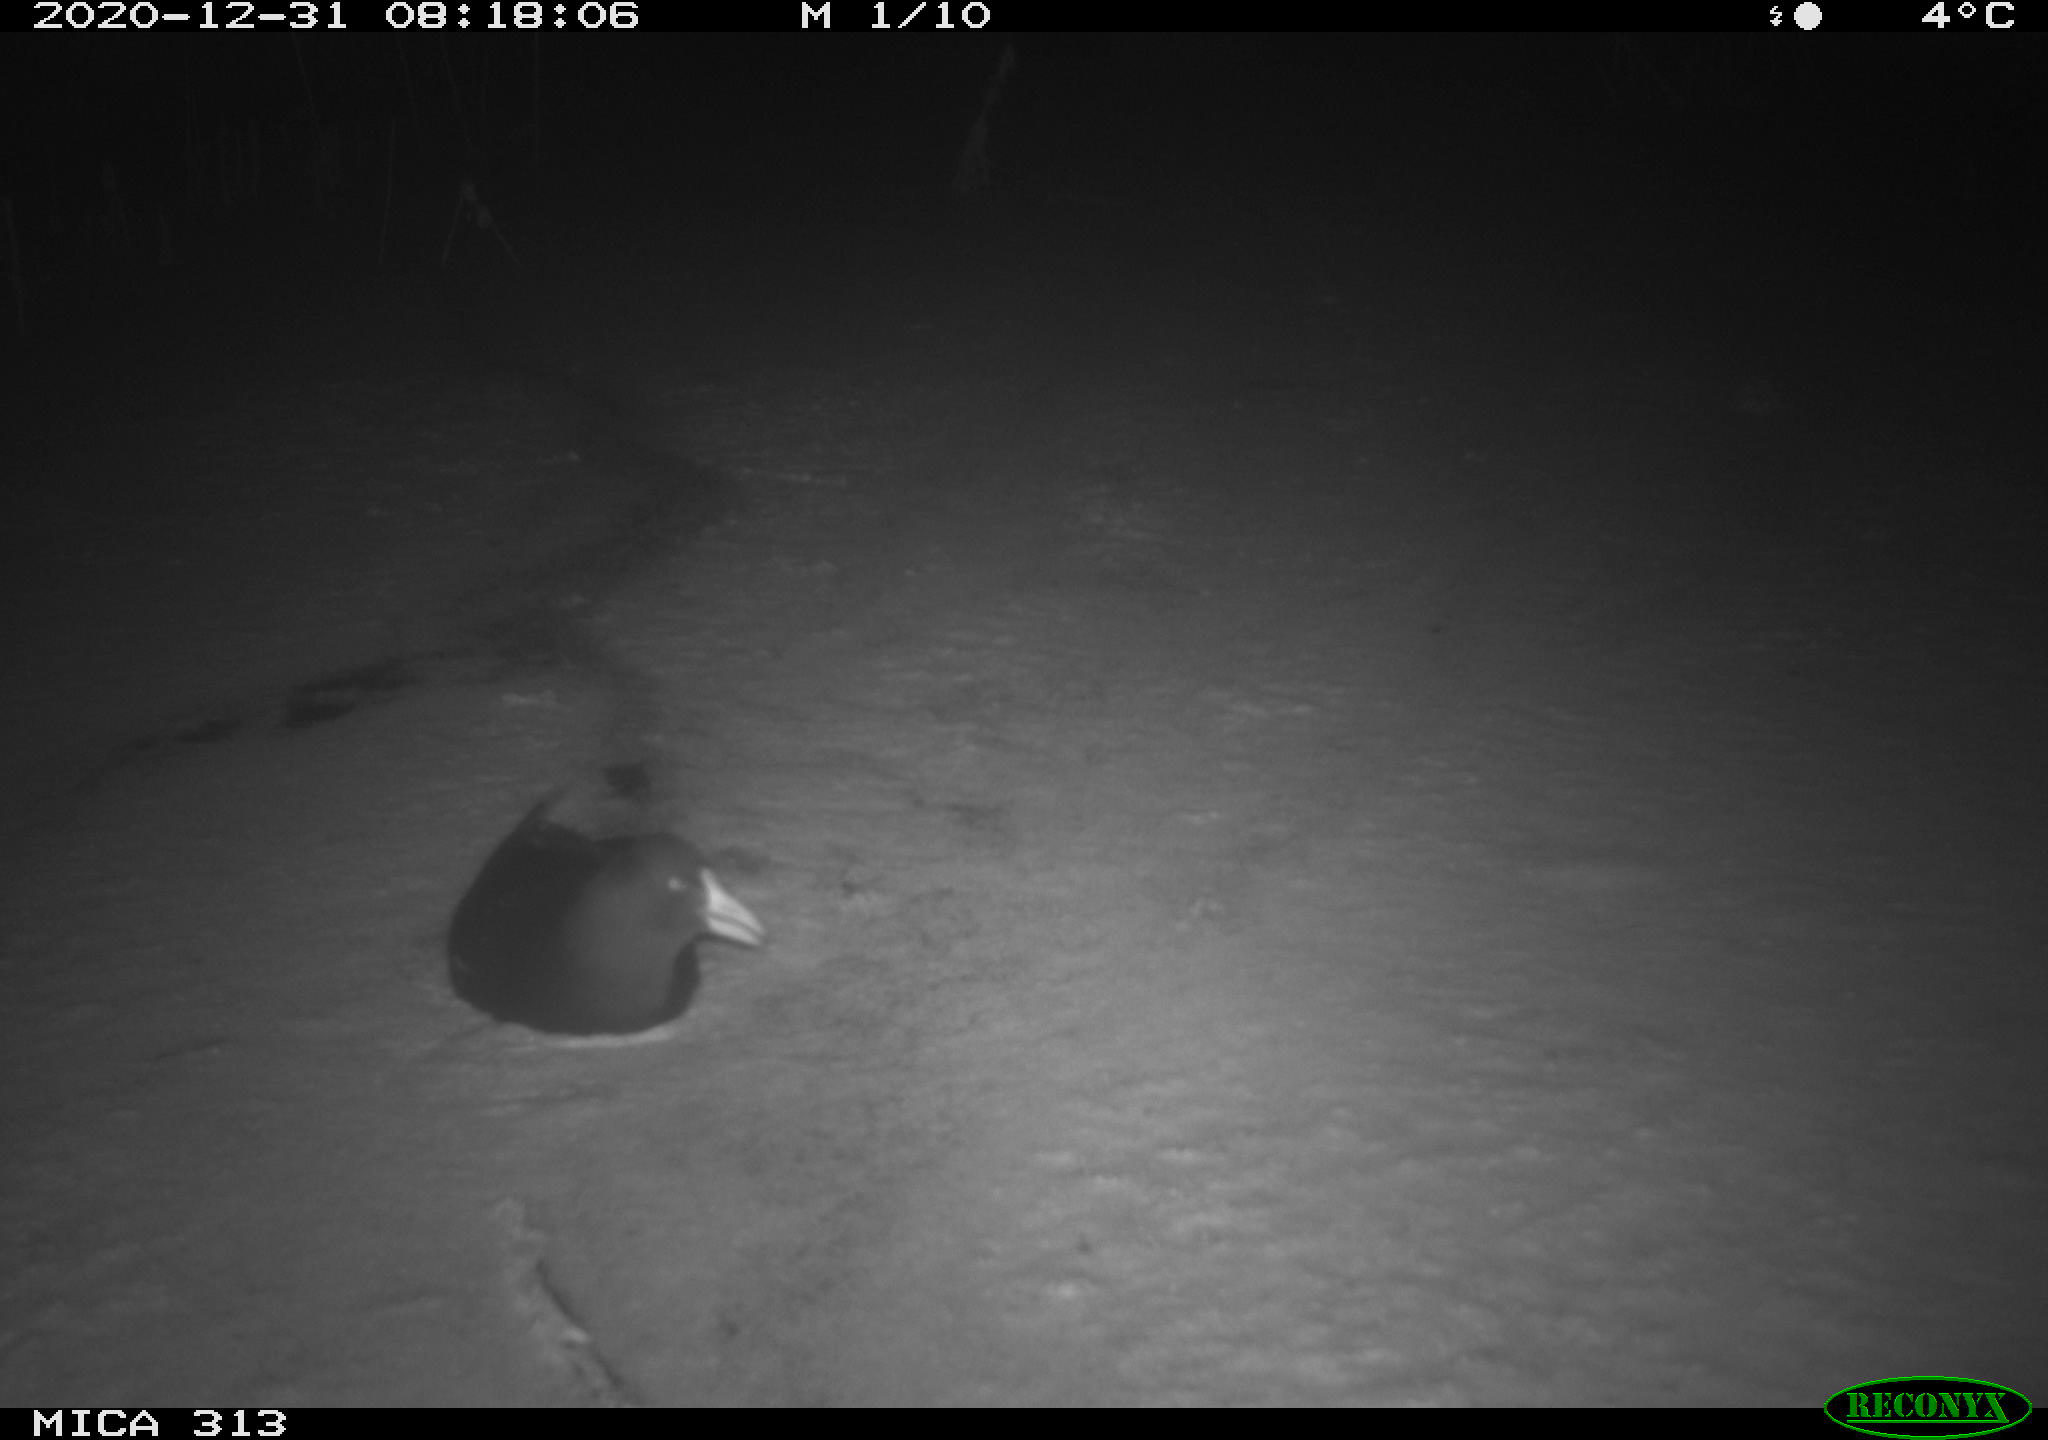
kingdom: Animalia
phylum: Chordata
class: Aves
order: Gruiformes
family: Rallidae
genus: Fulica
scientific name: Fulica atra
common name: Eurasian coot
